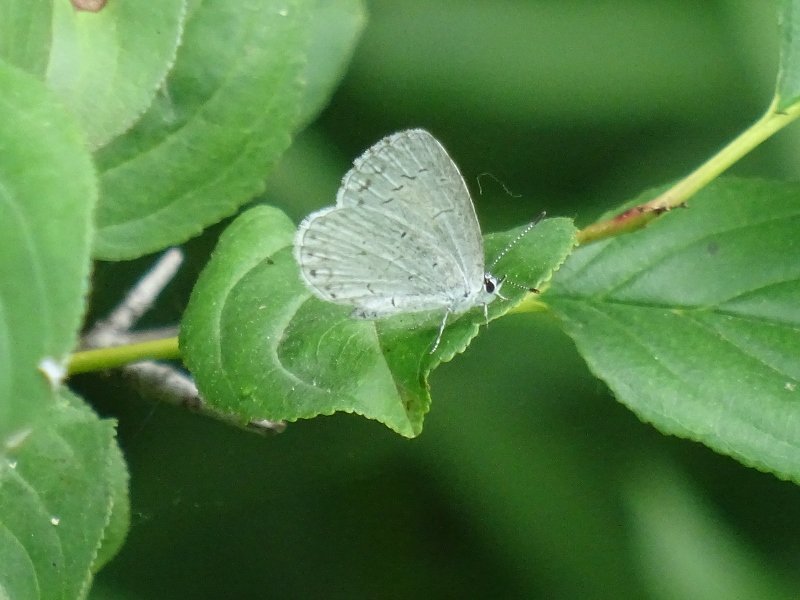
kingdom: Animalia
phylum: Arthropoda
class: Insecta
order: Lepidoptera
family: Lycaenidae
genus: Celastrina
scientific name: Celastrina
